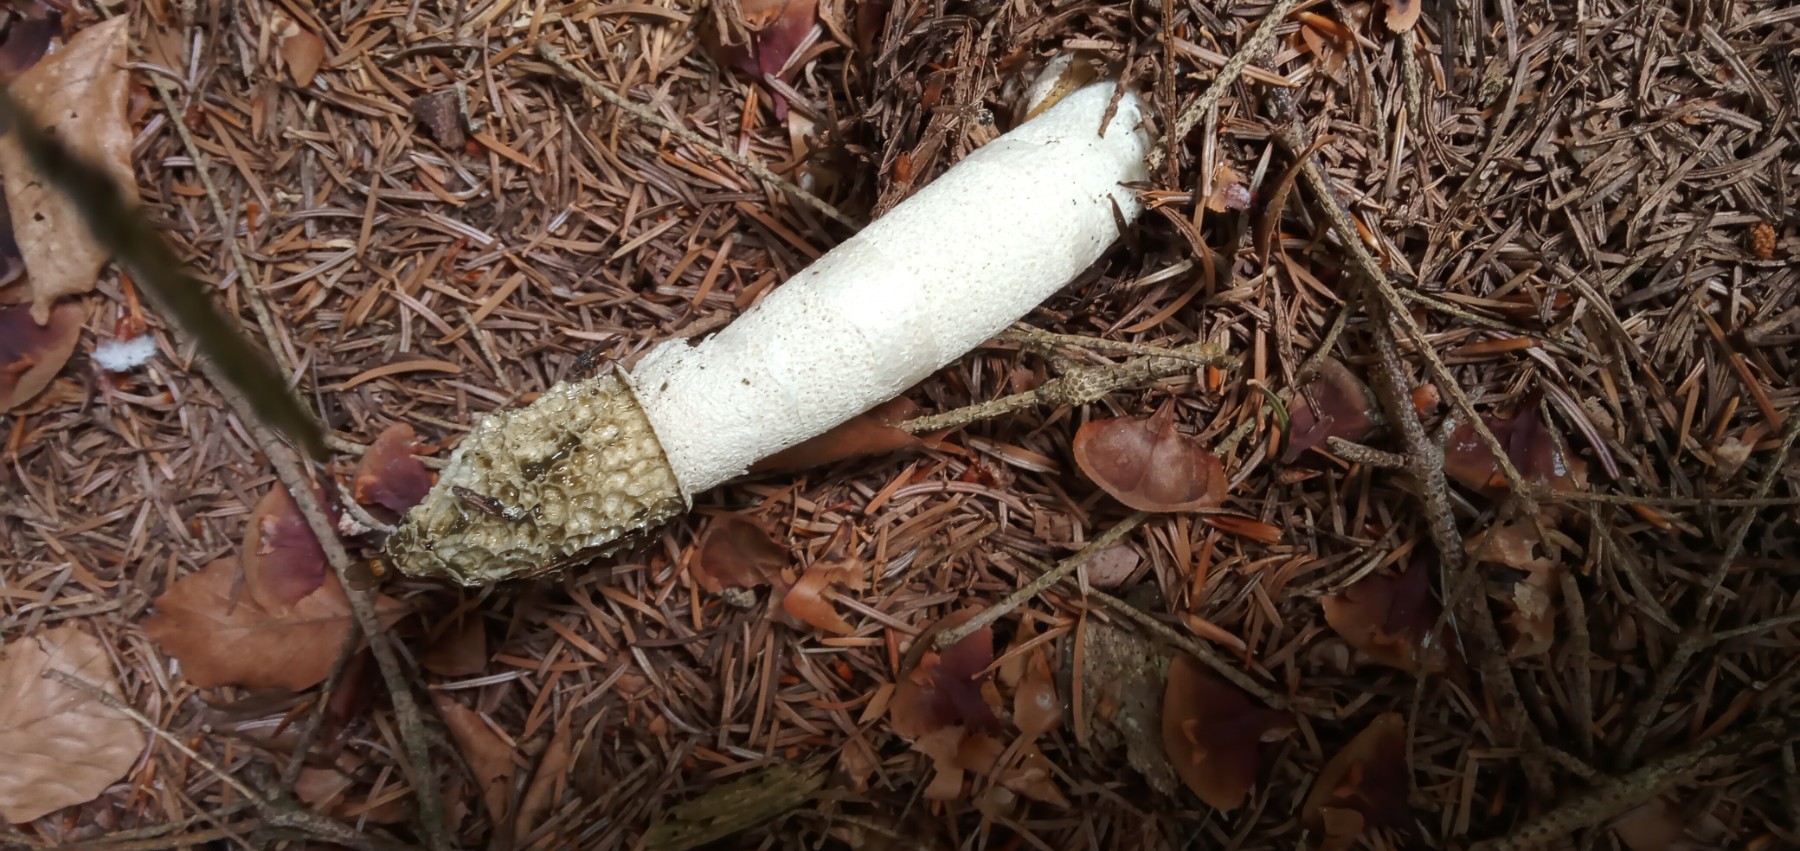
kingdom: Fungi
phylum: Basidiomycota
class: Agaricomycetes
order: Phallales
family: Phallaceae
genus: Phallus
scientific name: Phallus impudicus
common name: almindelig stinksvamp
